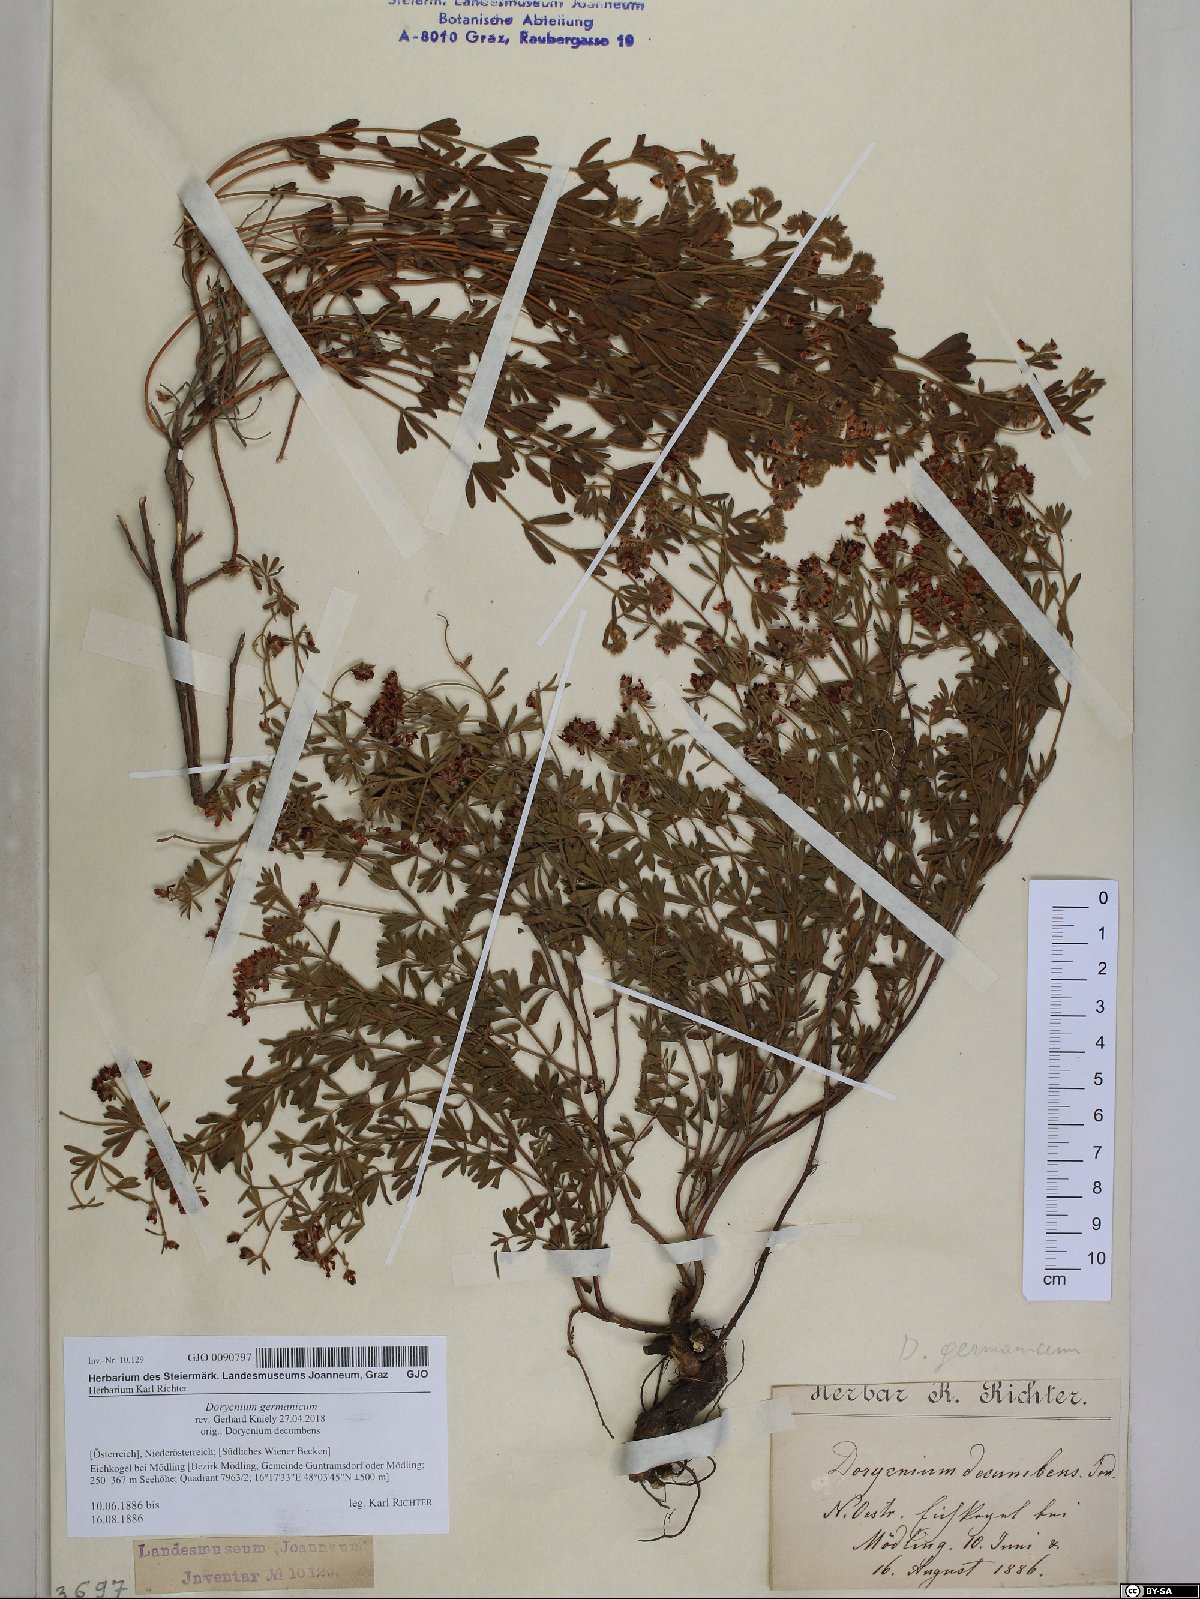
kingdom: Plantae
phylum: Tracheophyta
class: Magnoliopsida
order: Fabales
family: Fabaceae
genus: Lotus
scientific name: Lotus germanicus
